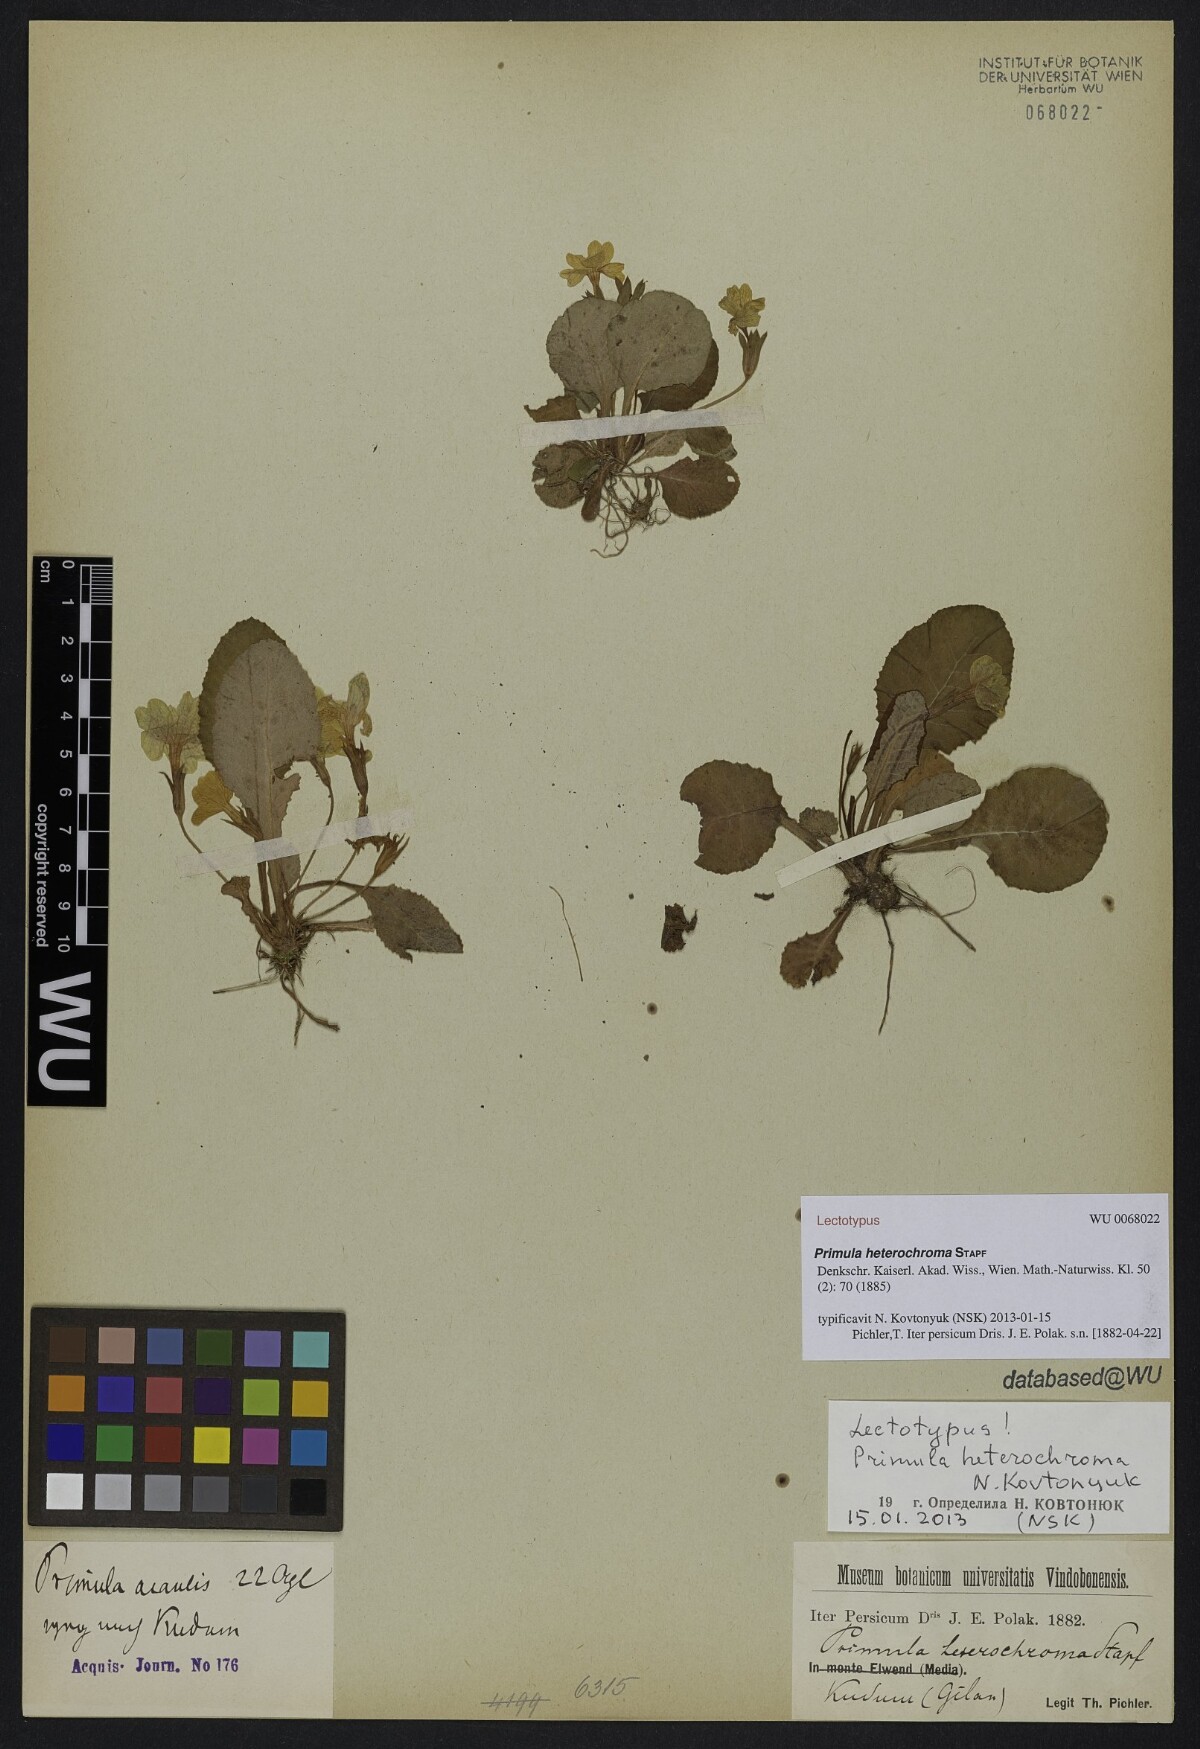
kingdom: Plantae
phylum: Tracheophyta
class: Magnoliopsida
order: Ericales
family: Primulaceae
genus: Primula
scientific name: Primula heterochroma
